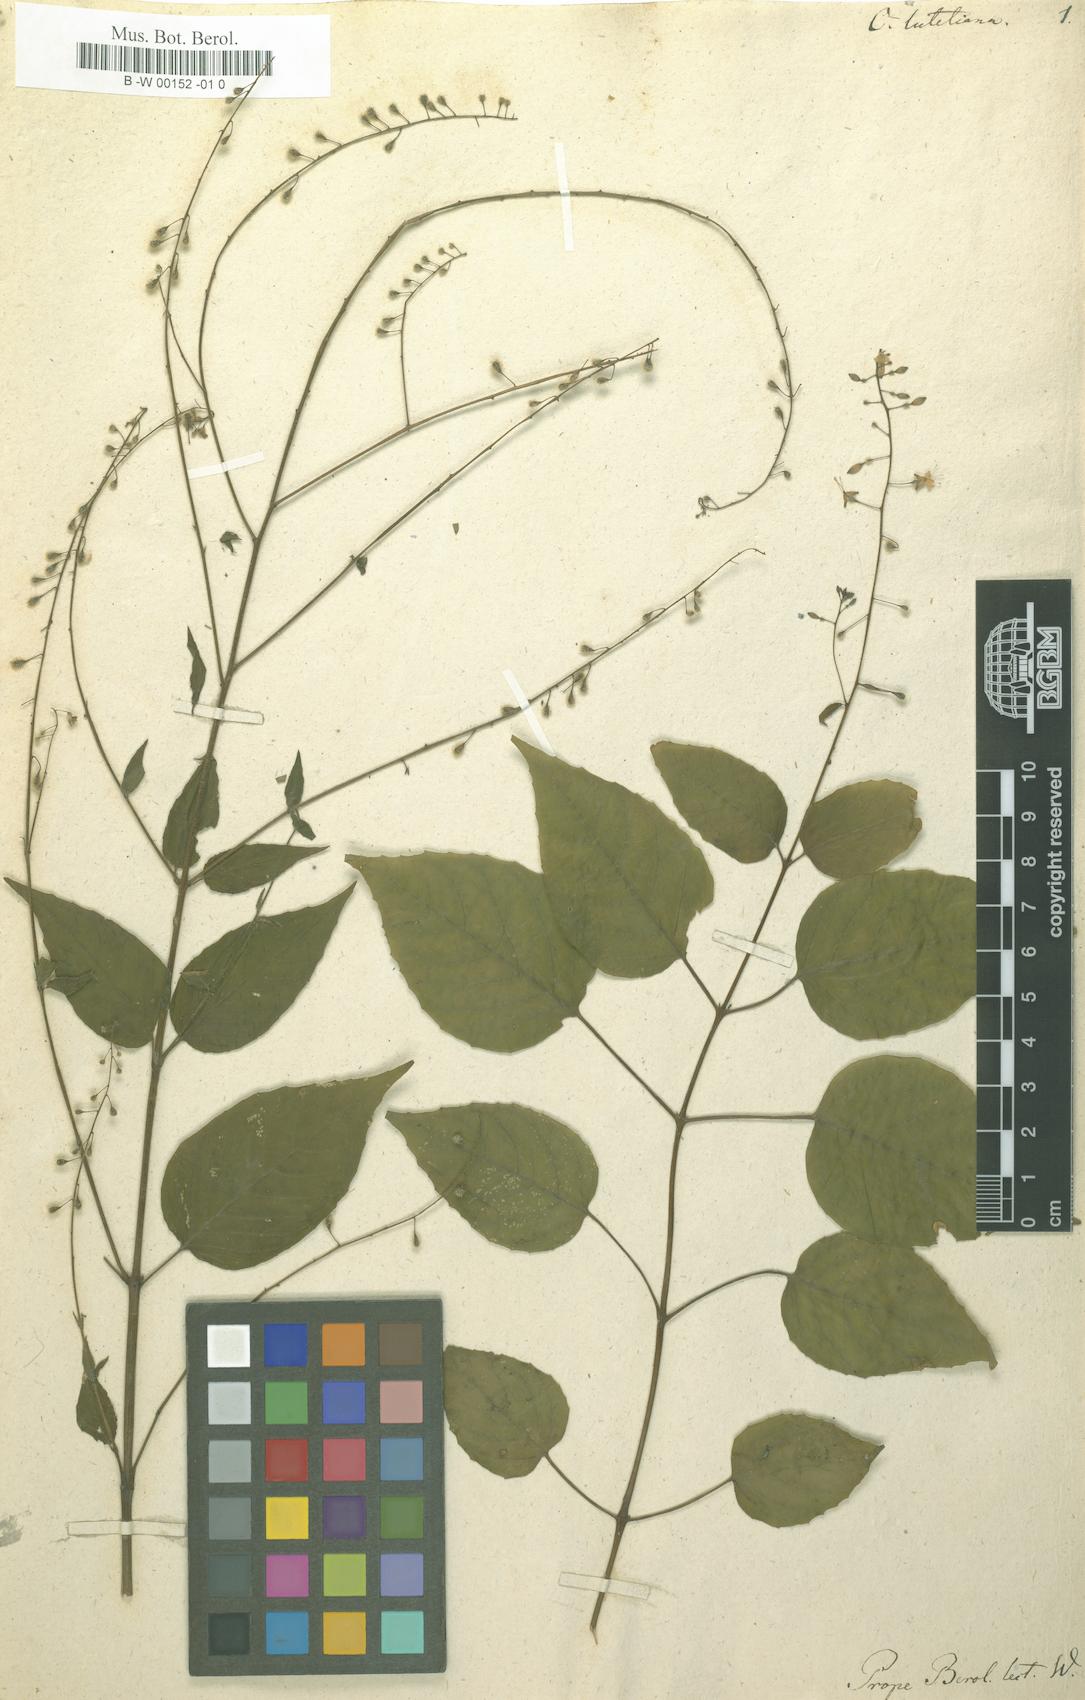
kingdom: Plantae
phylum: Tracheophyta
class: Magnoliopsida
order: Myrtales
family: Onagraceae
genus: Circaea
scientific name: Circaea lutetiana
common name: Enchanter's-nightshade
